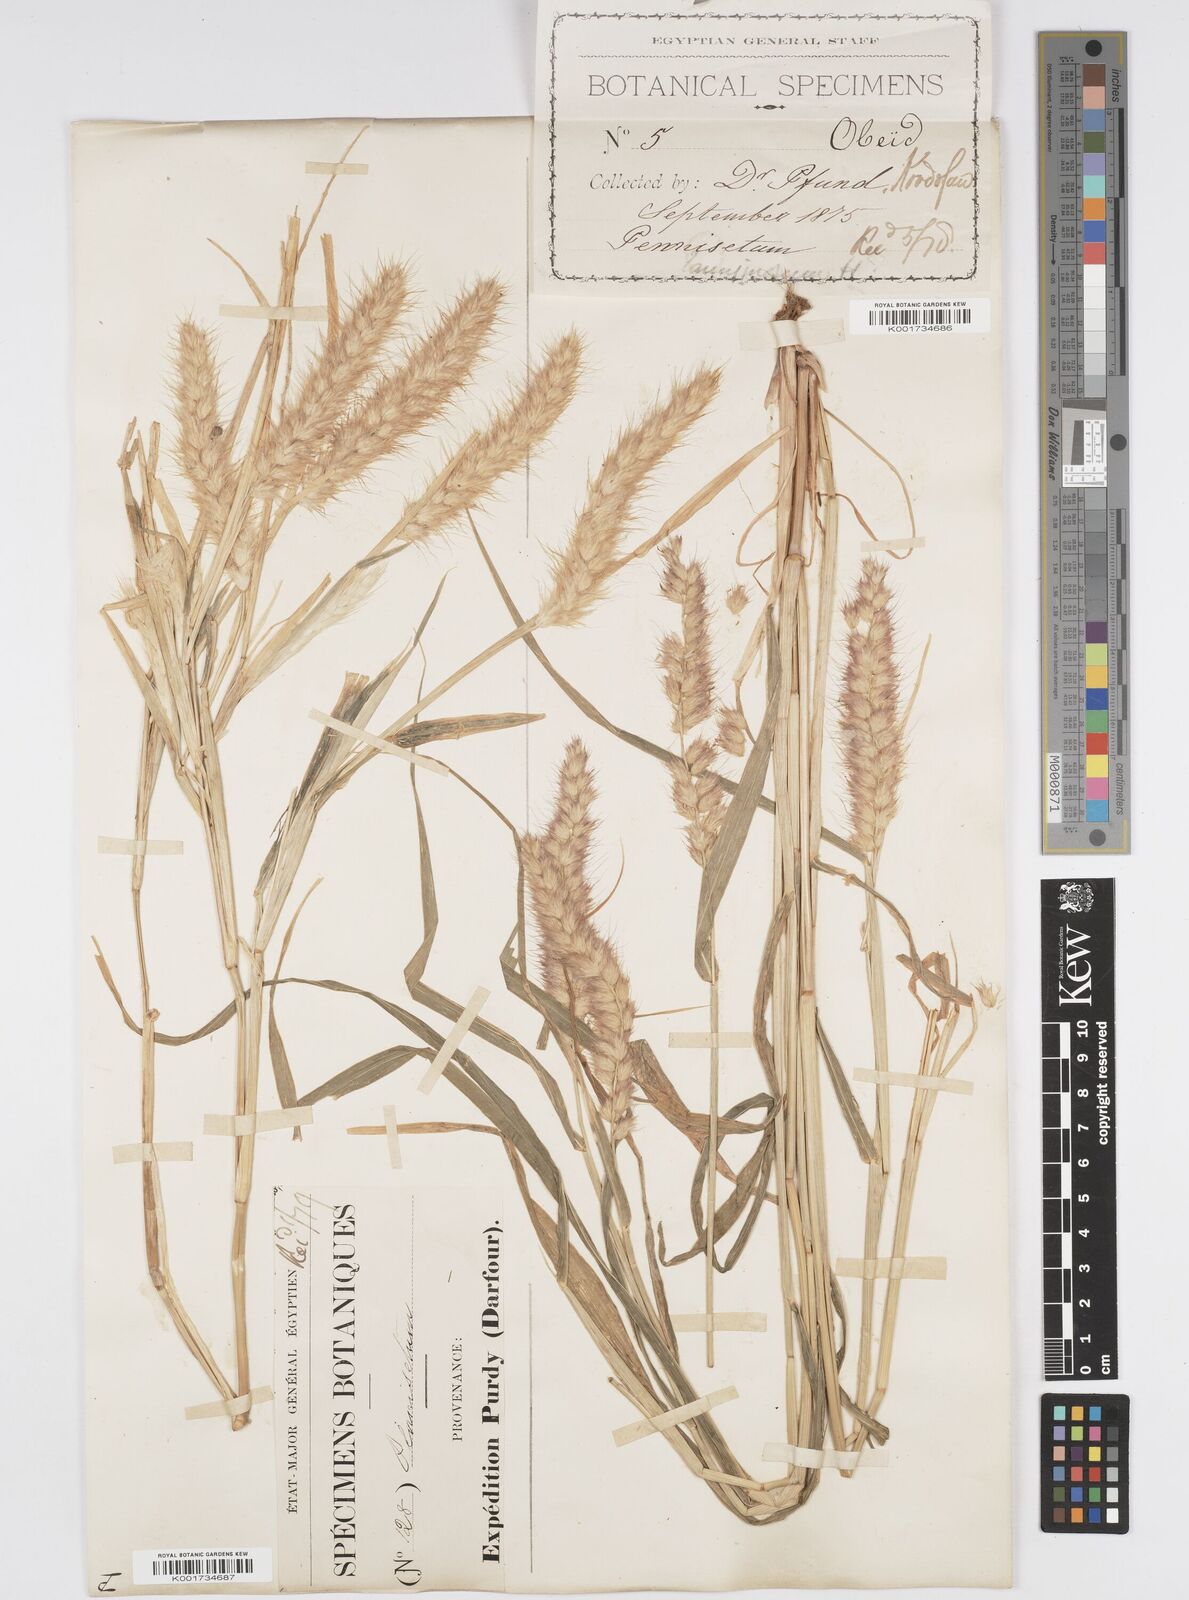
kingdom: Plantae
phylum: Tracheophyta
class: Liliopsida
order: Poales
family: Poaceae
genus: Cenchrus
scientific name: Cenchrus pedicellatus
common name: Hairy fountain grass
